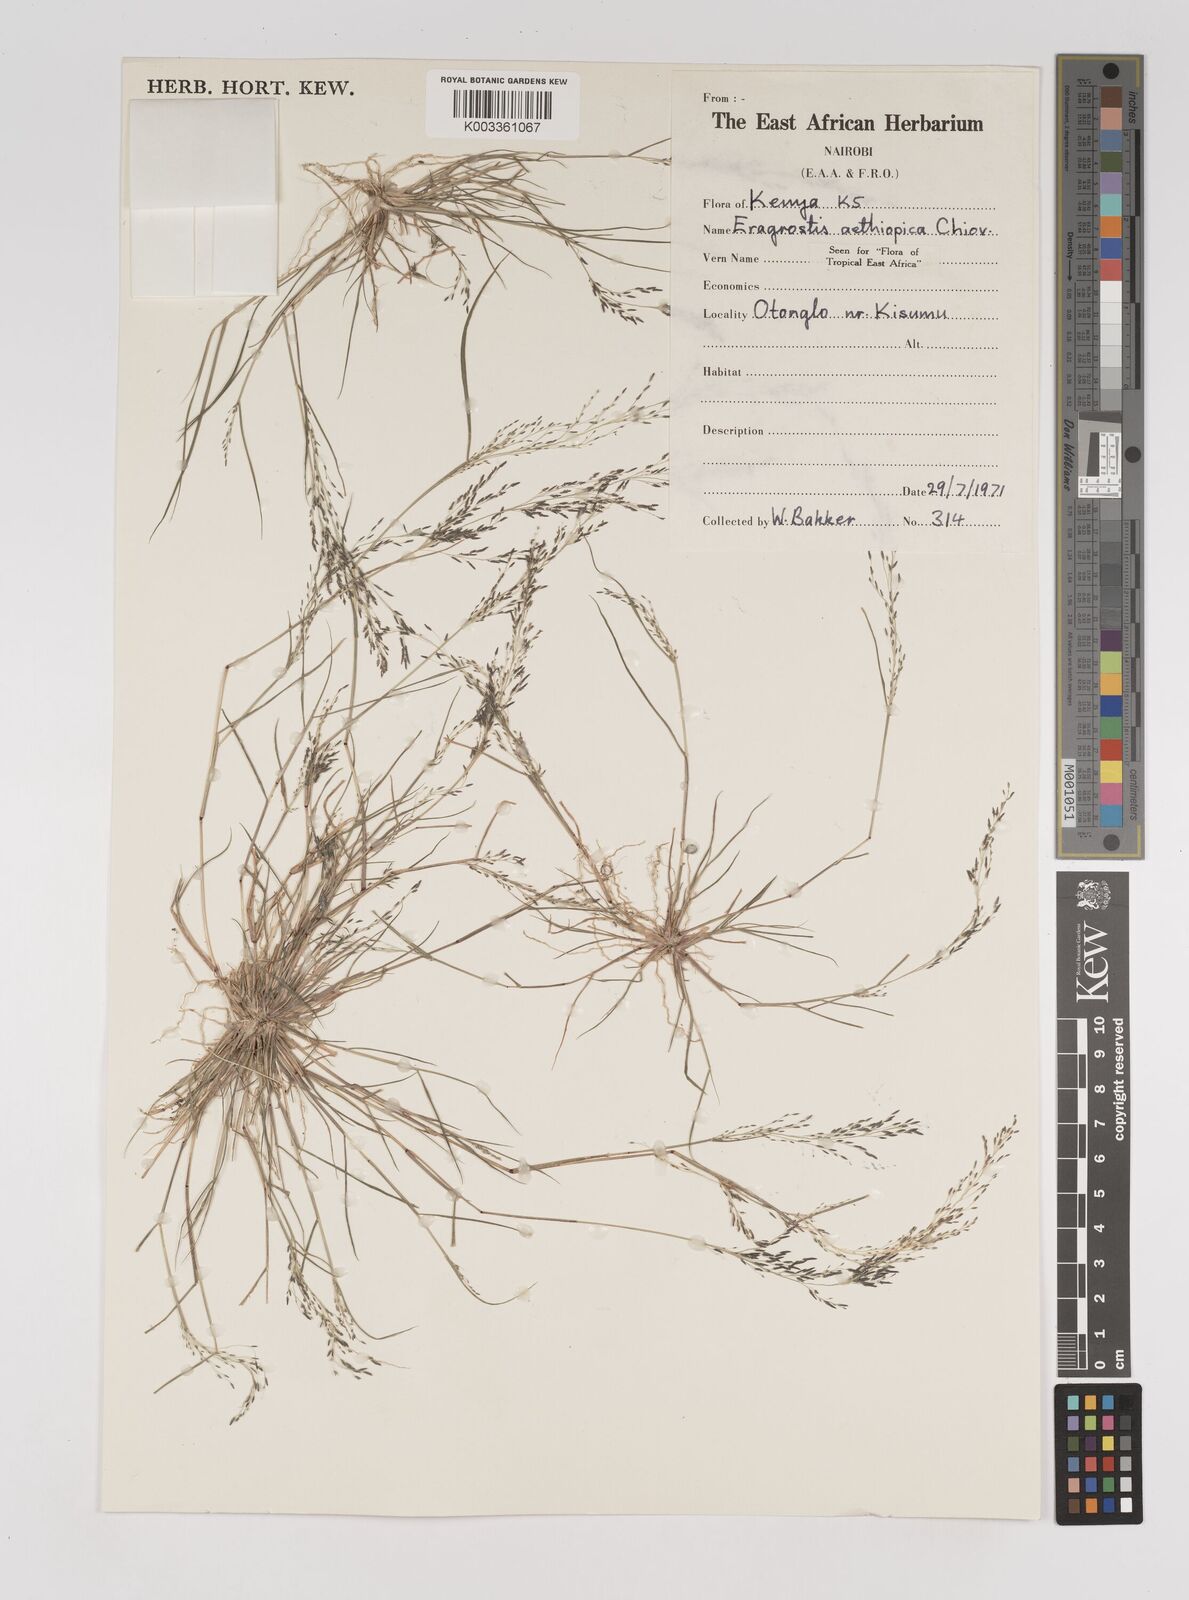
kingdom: Plantae
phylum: Tracheophyta
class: Liliopsida
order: Poales
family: Poaceae
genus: Eragrostis
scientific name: Eragrostis aethiopica
